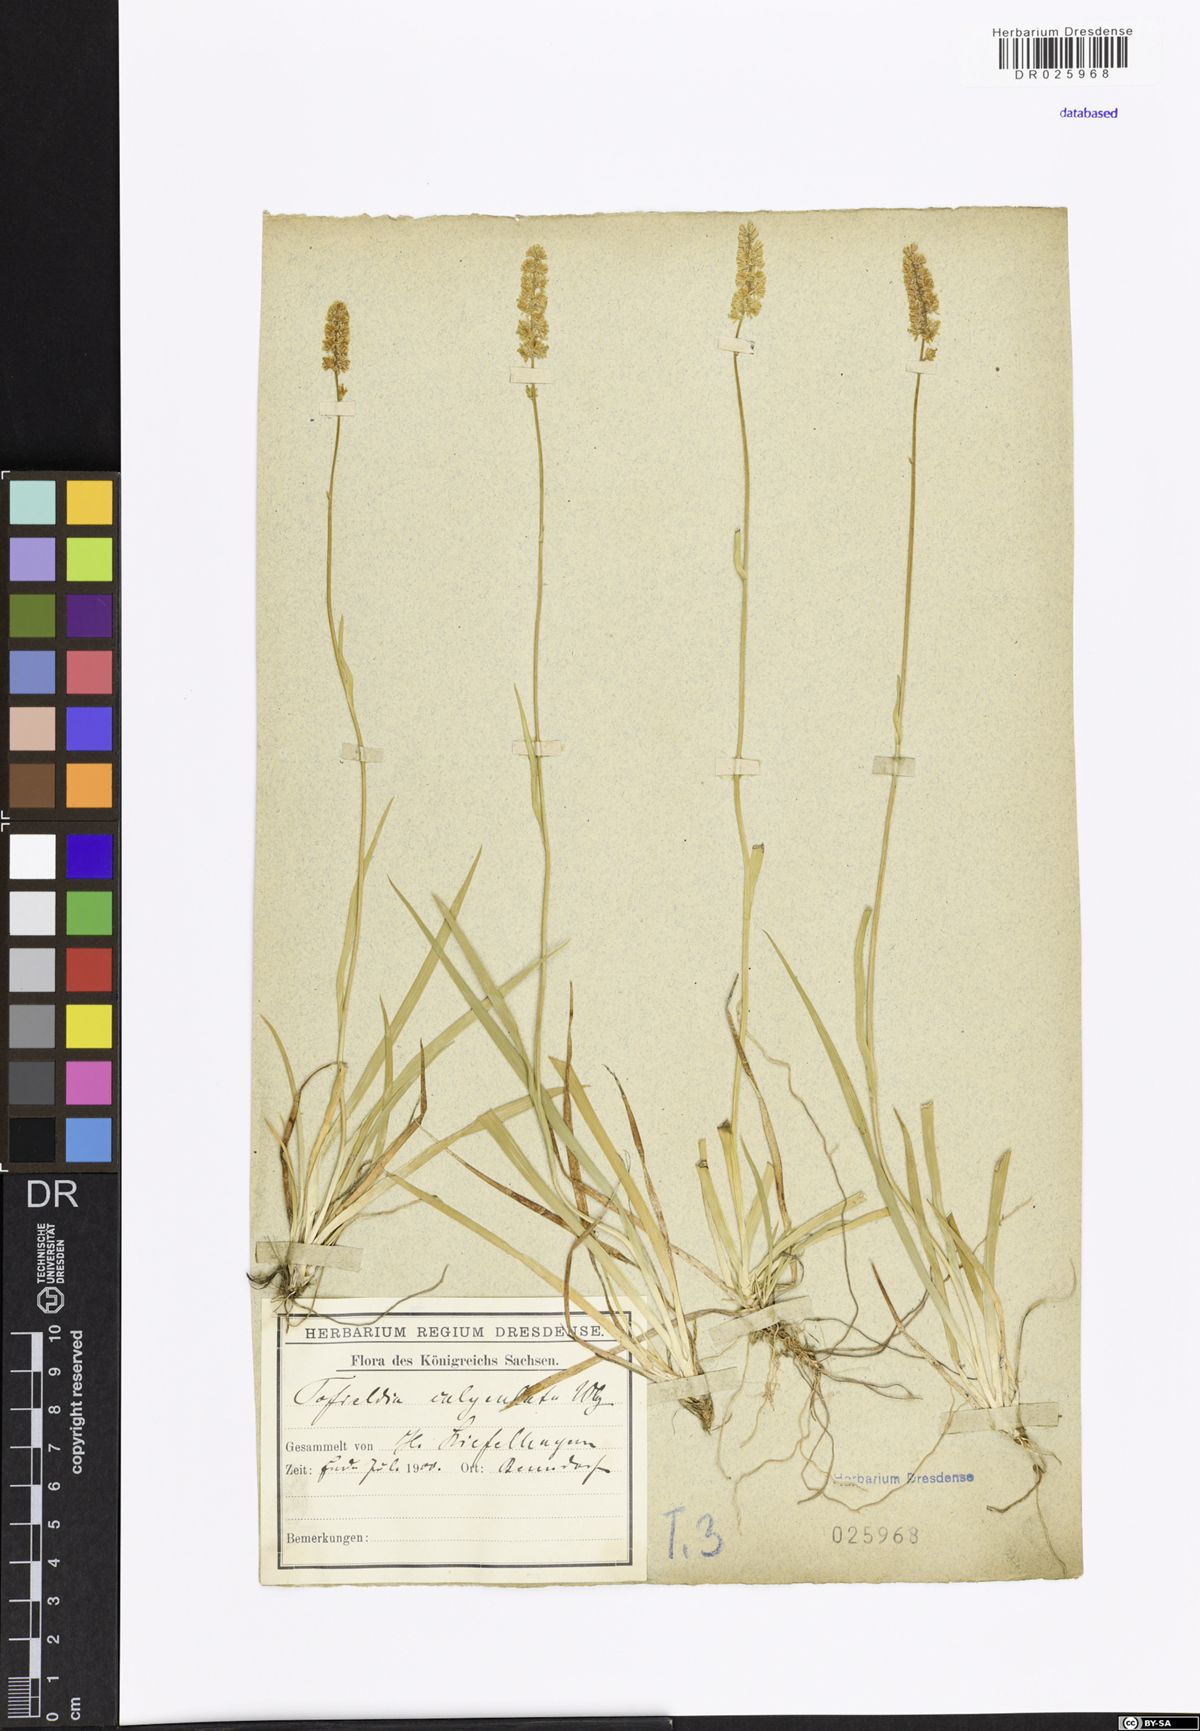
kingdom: Plantae
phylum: Tracheophyta
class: Liliopsida
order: Alismatales
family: Tofieldiaceae
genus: Tofieldia
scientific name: Tofieldia calyculata
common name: German-asphodel
